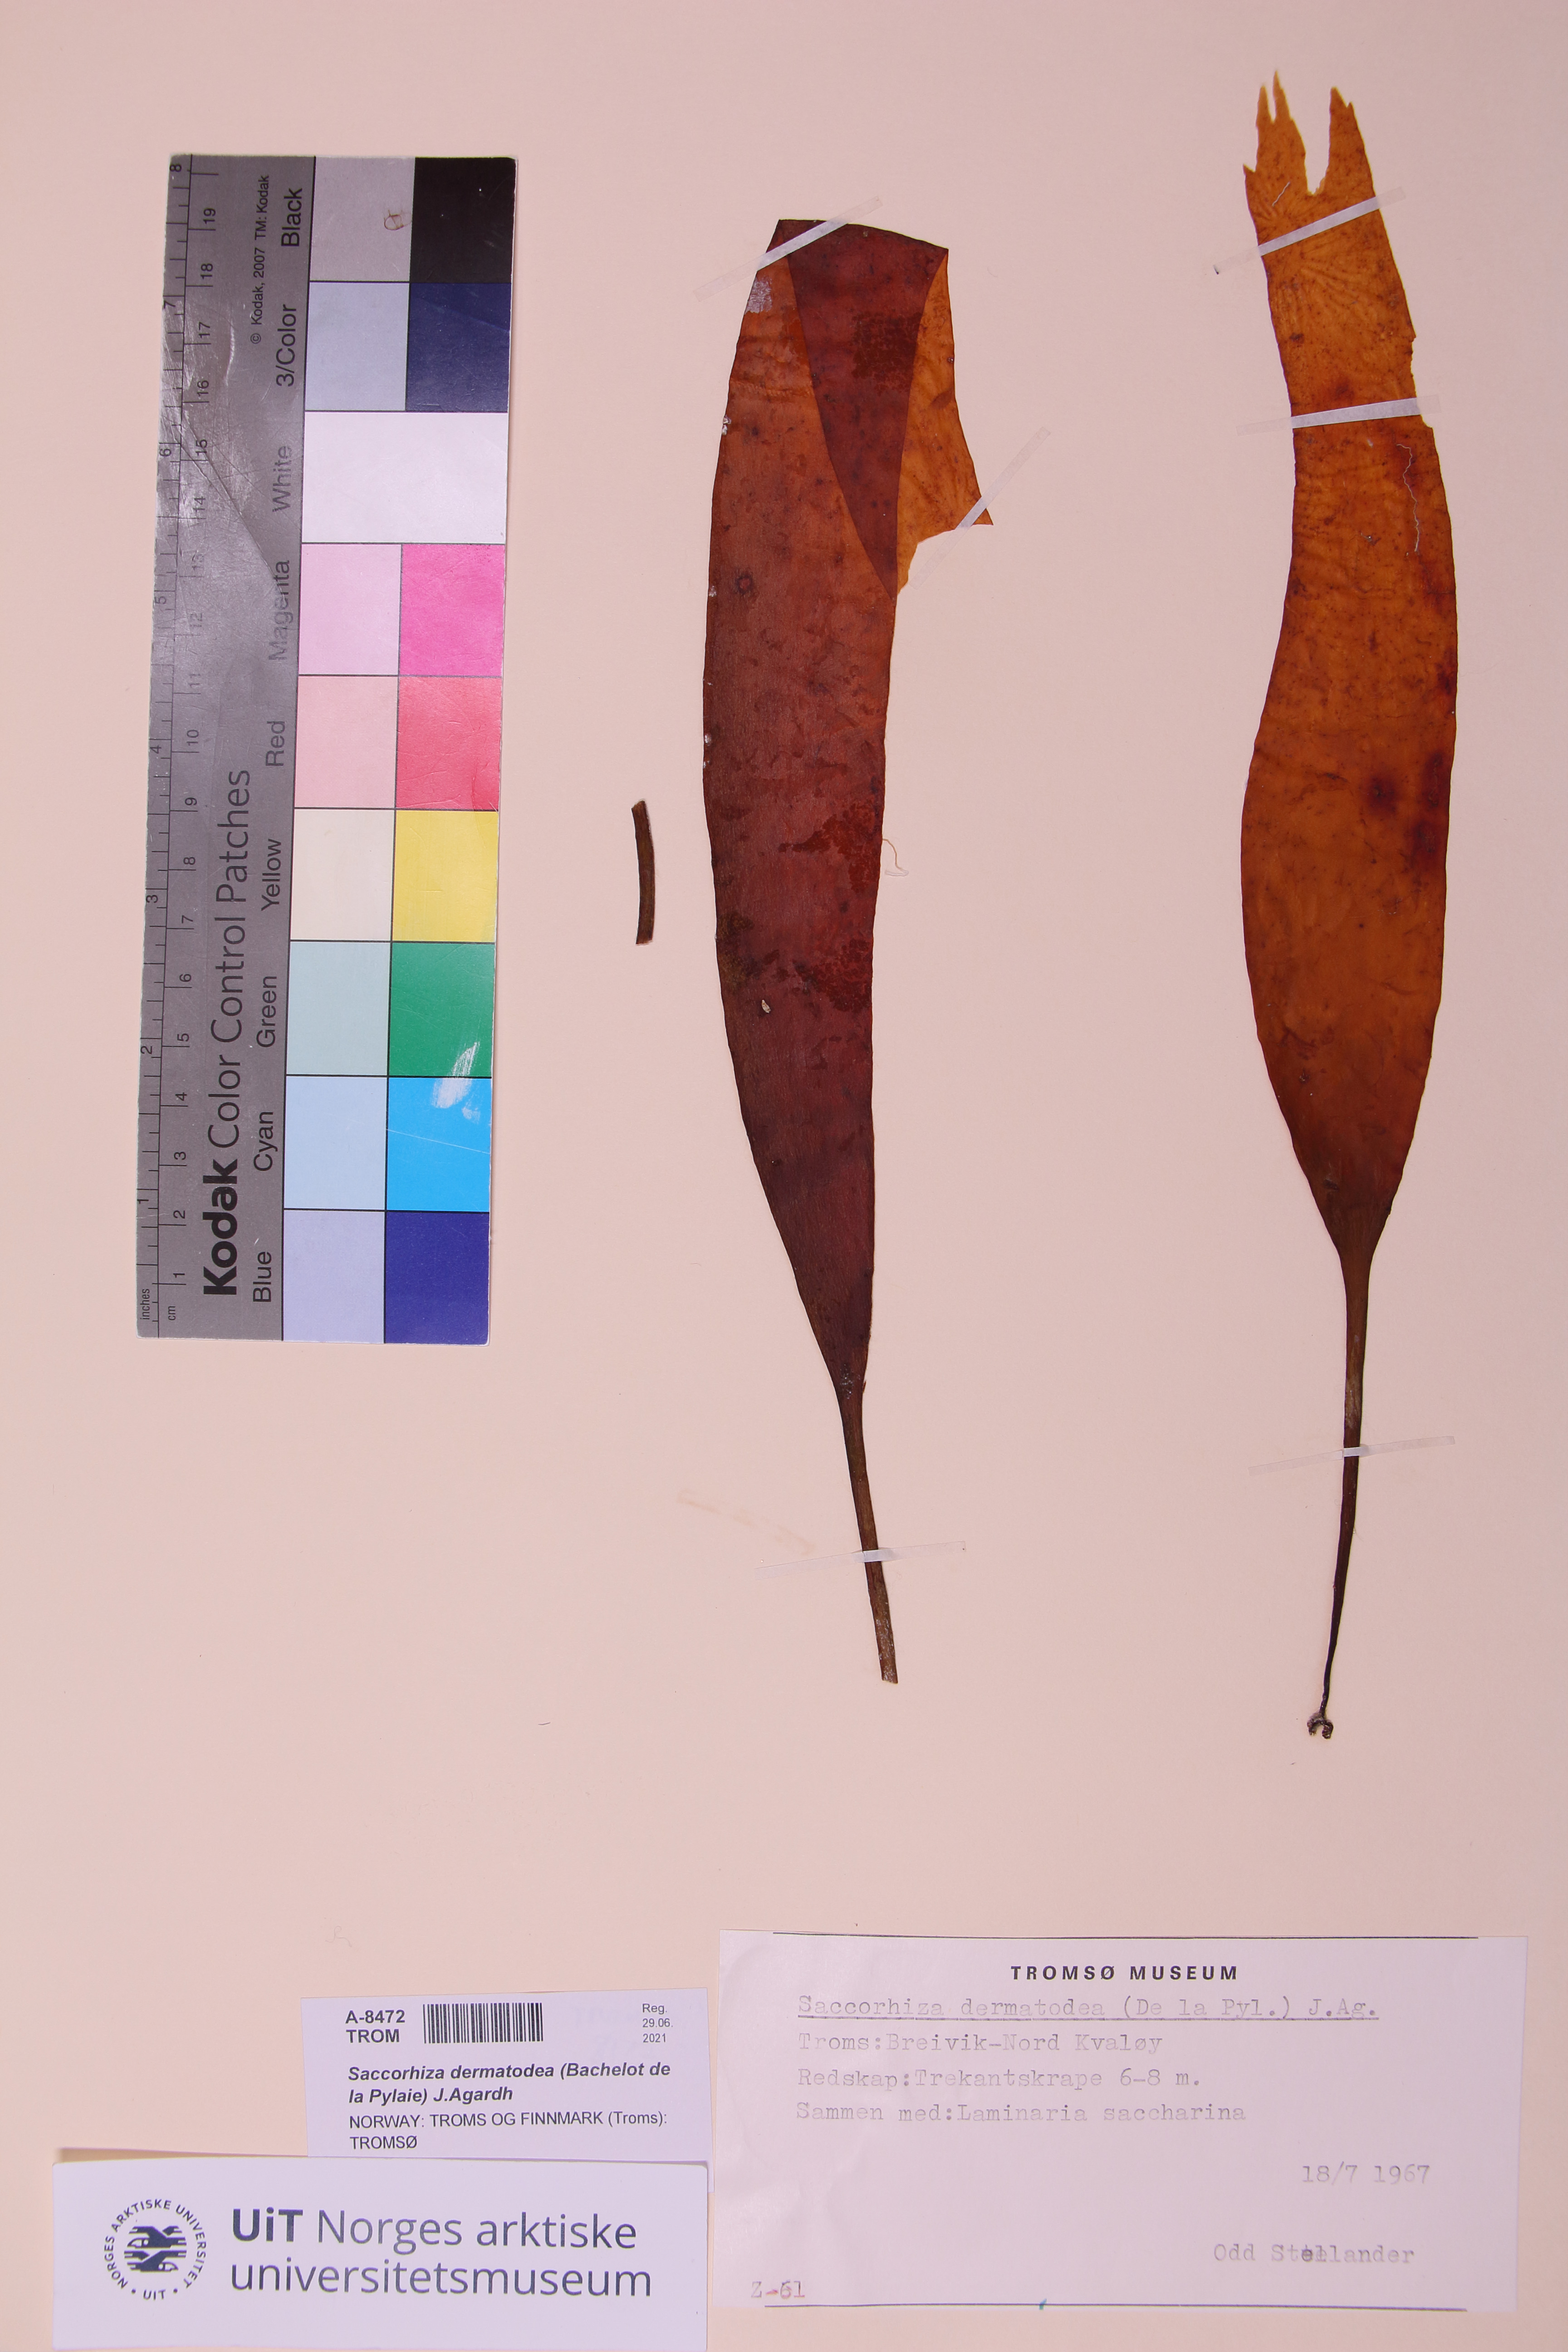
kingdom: Chromista
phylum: Ochrophyta
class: Phaeophyceae
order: Tilopteridales
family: Phyllariaceae
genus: Saccorhiza
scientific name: Saccorhiza dermatodea
